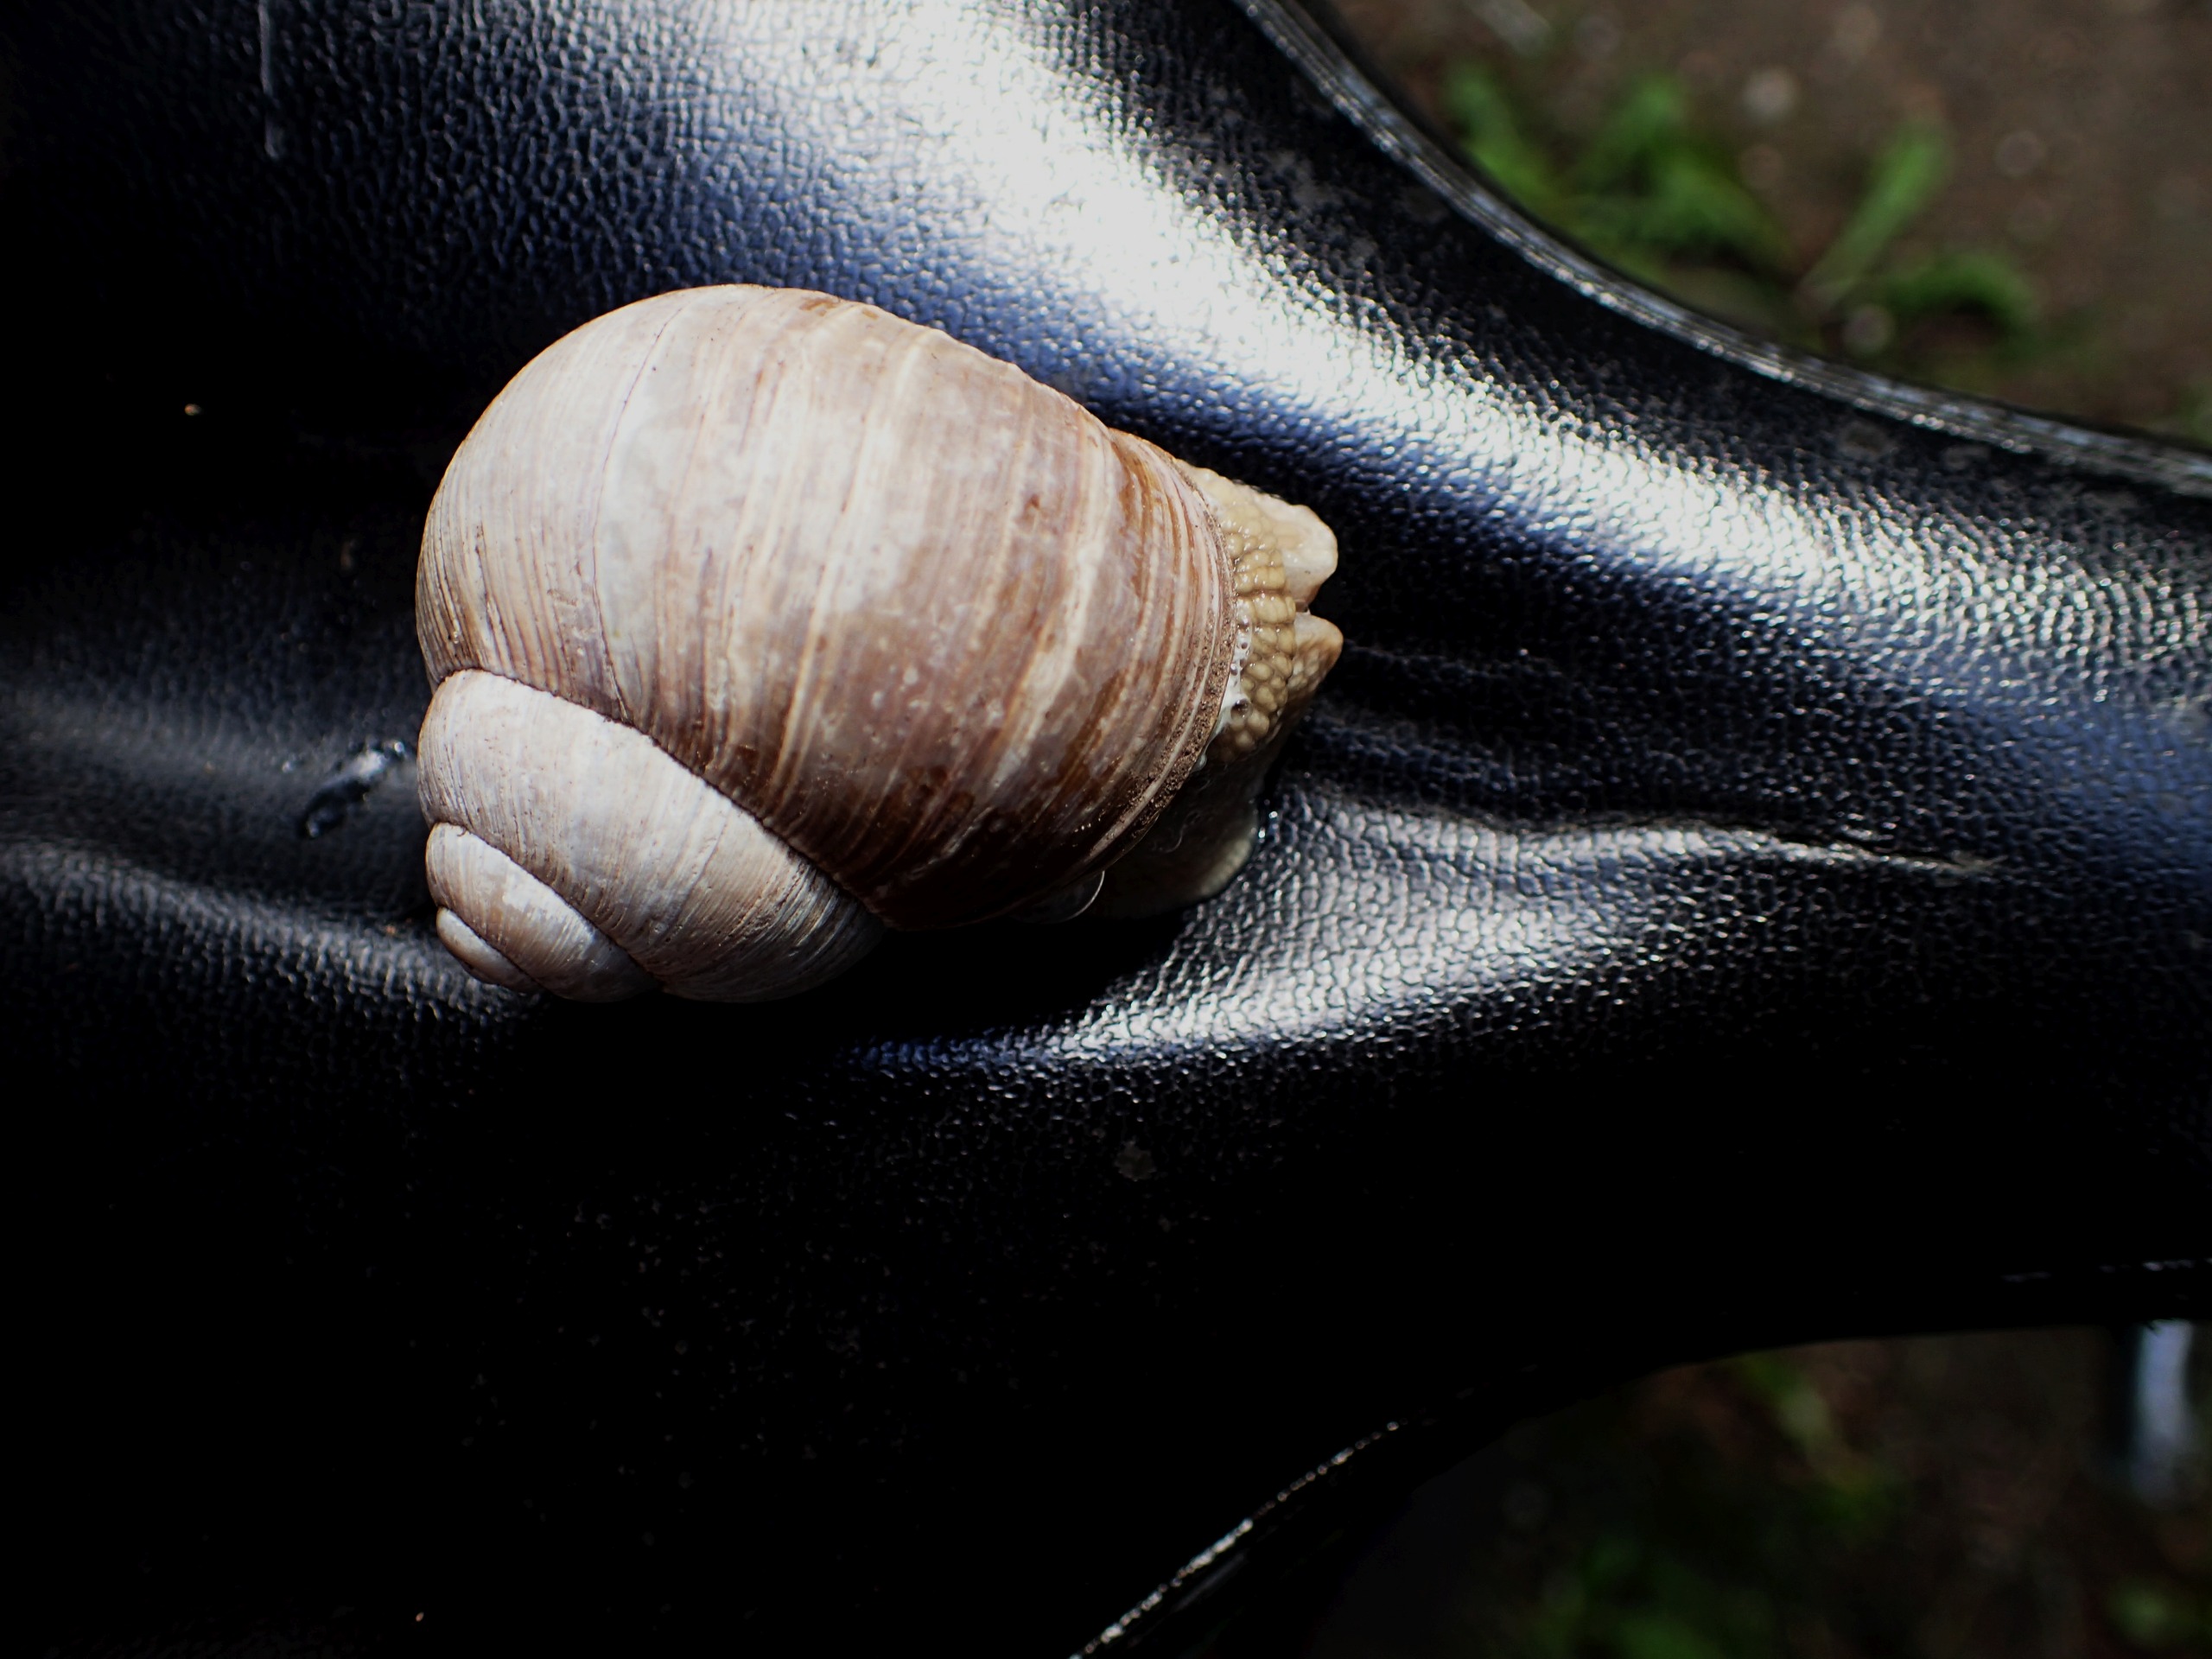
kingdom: Animalia
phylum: Mollusca
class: Gastropoda
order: Stylommatophora
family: Helicidae
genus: Helix
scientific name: Helix pomatia
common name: Vinbjergsnegl
